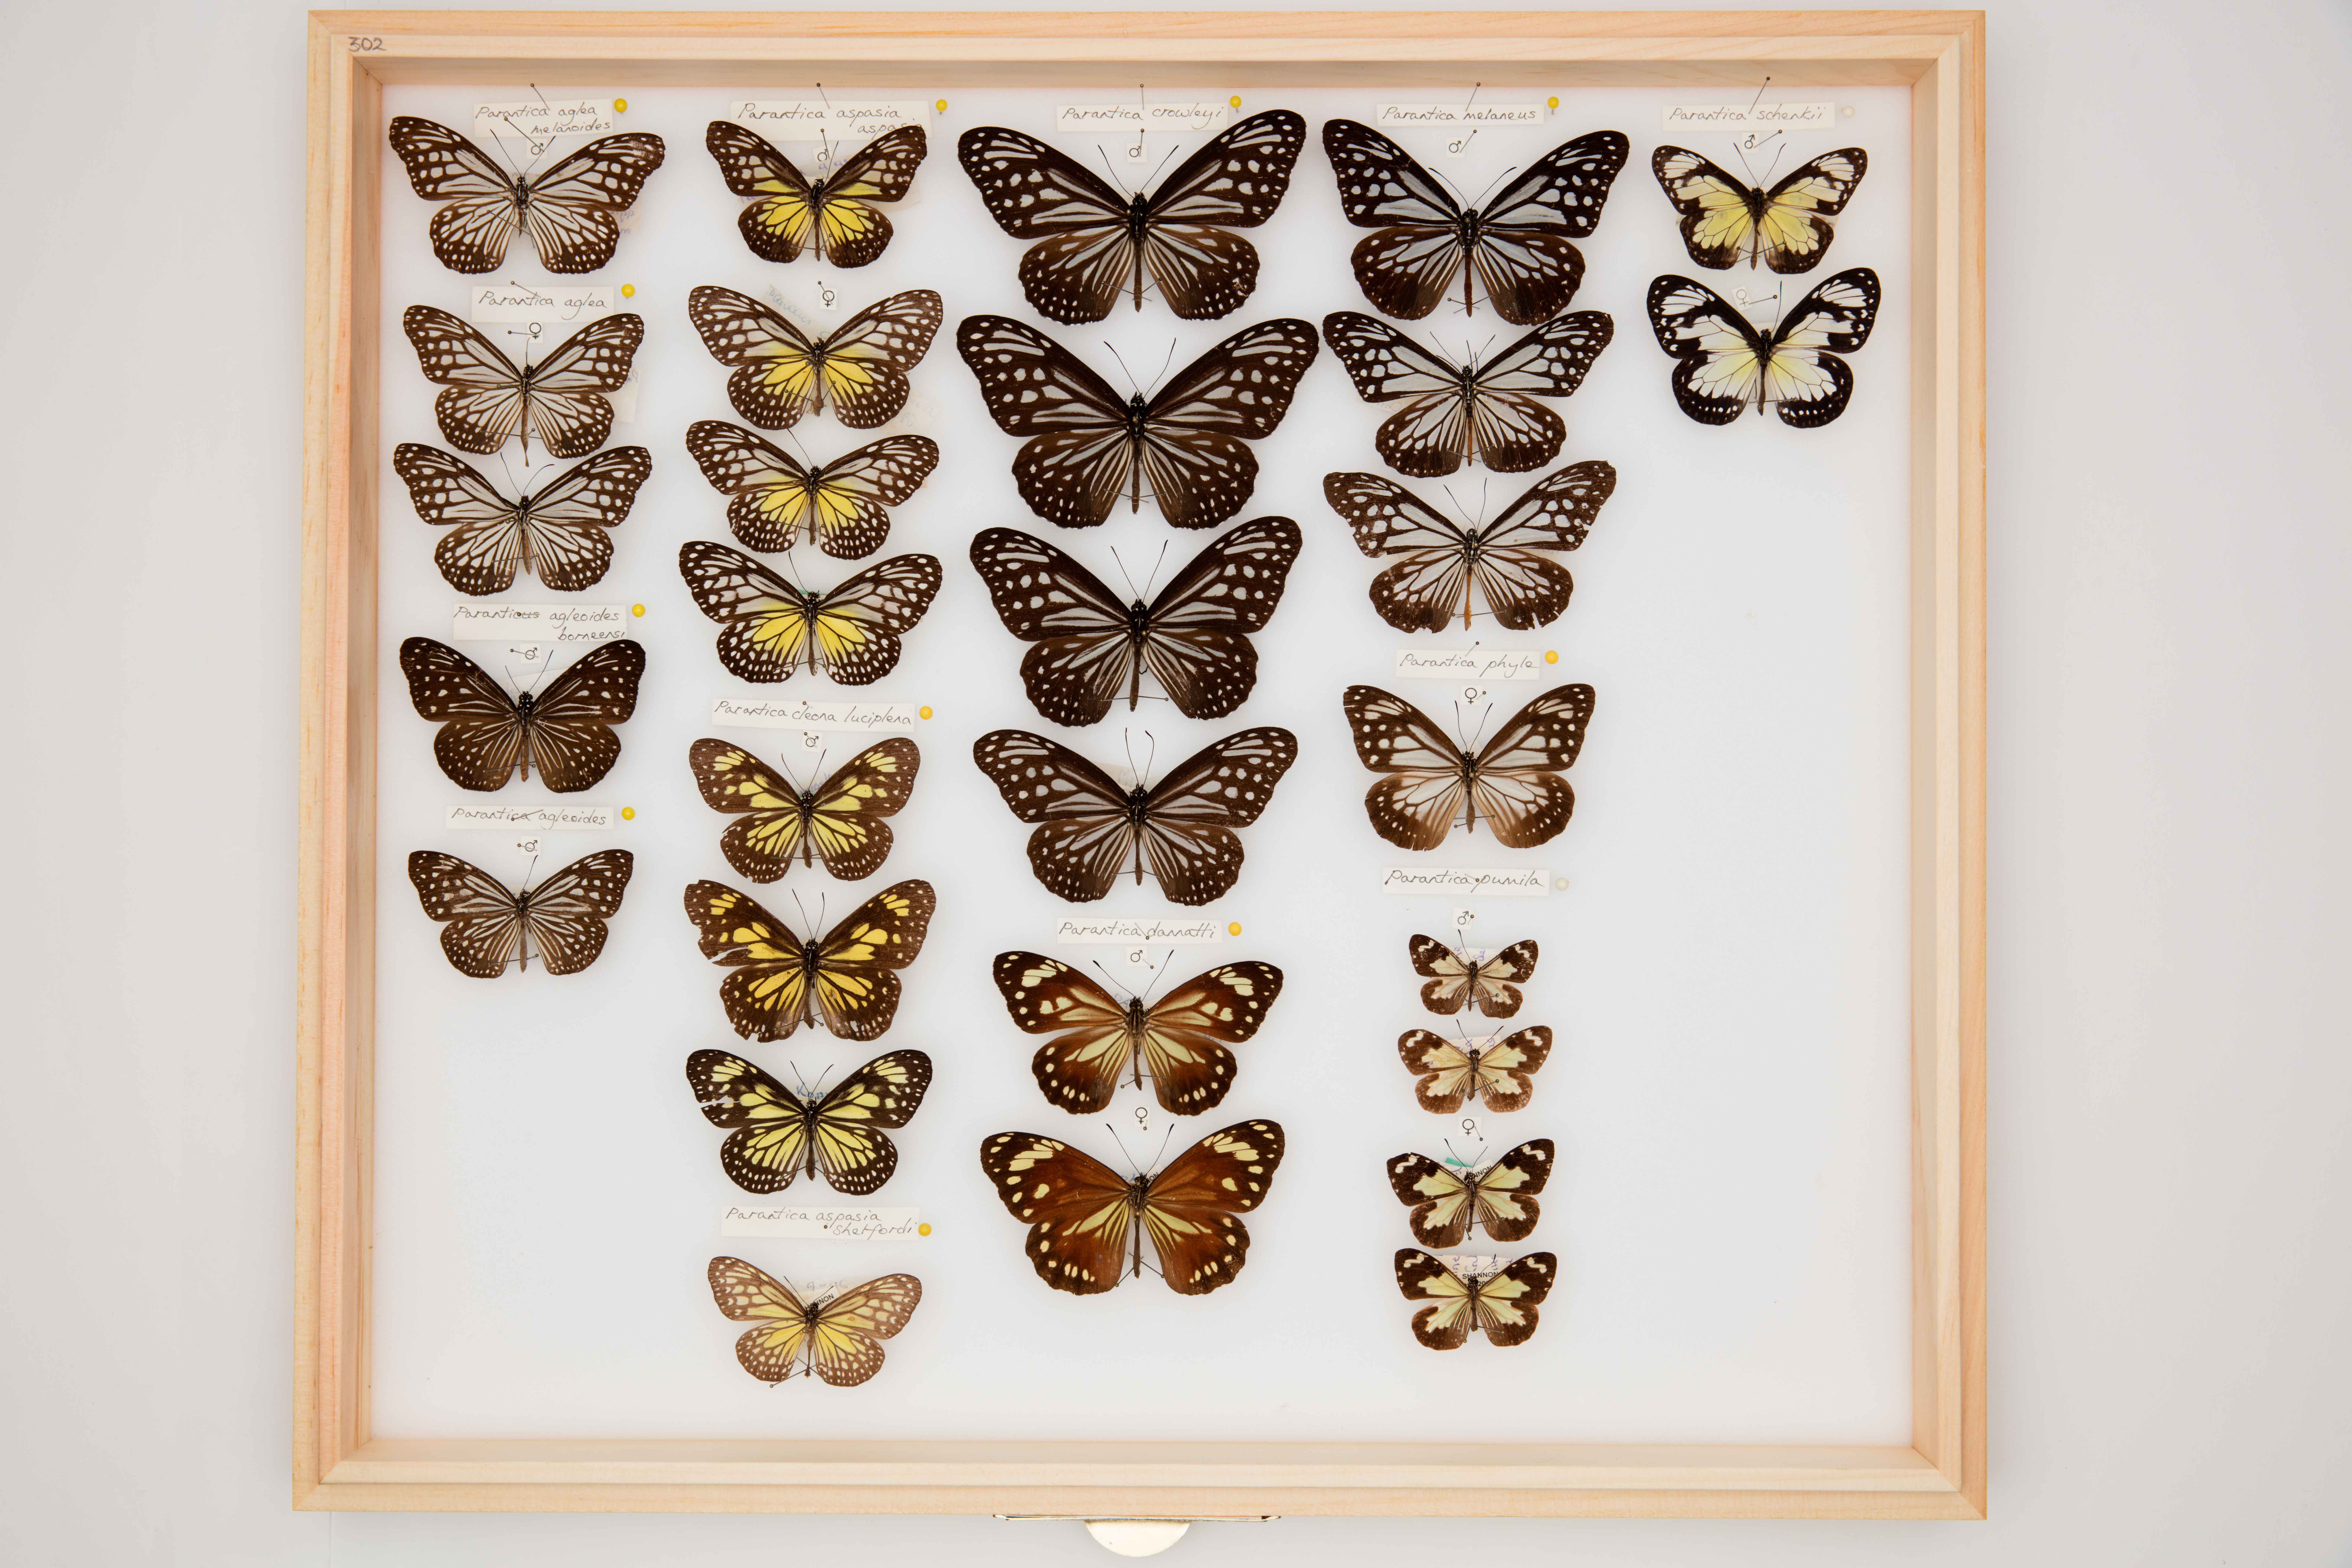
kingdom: Animalia
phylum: Arthropoda
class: Insecta
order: Lepidoptera
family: Nymphalidae
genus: Parantica
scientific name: Parantica aglea
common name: Glassy tiger
